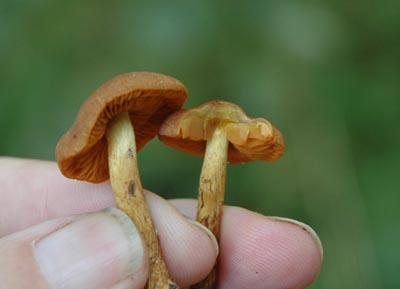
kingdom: Fungi
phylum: Basidiomycota
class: Agaricomycetes
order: Agaricales
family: Cortinariaceae
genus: Cortinarius
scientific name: Cortinarius malicorius
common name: grønkødet slørhat
